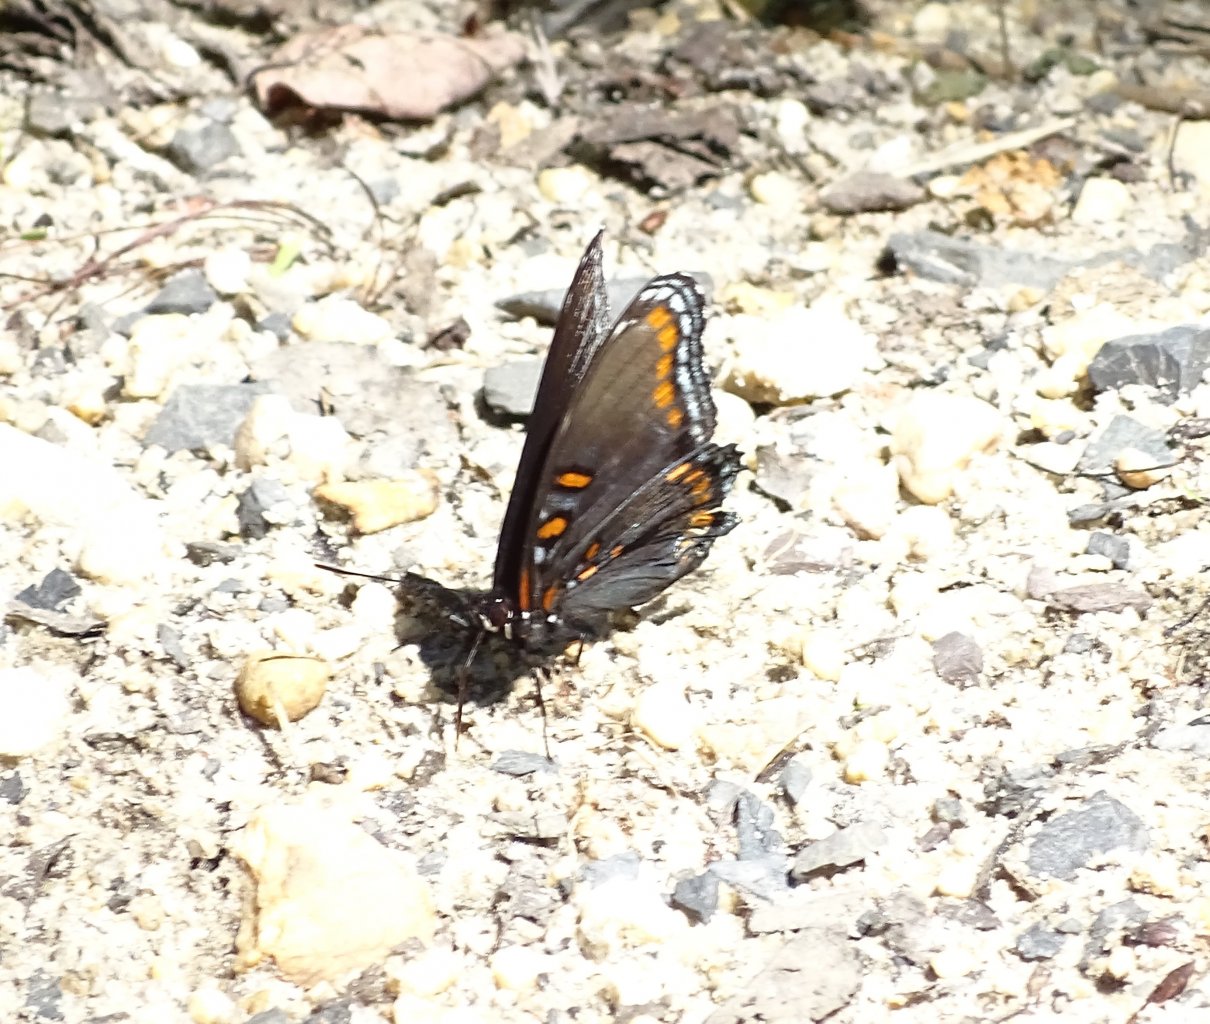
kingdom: Animalia
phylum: Arthropoda
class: Insecta
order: Lepidoptera
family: Nymphalidae
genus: Limenitis
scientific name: Limenitis astyanax
